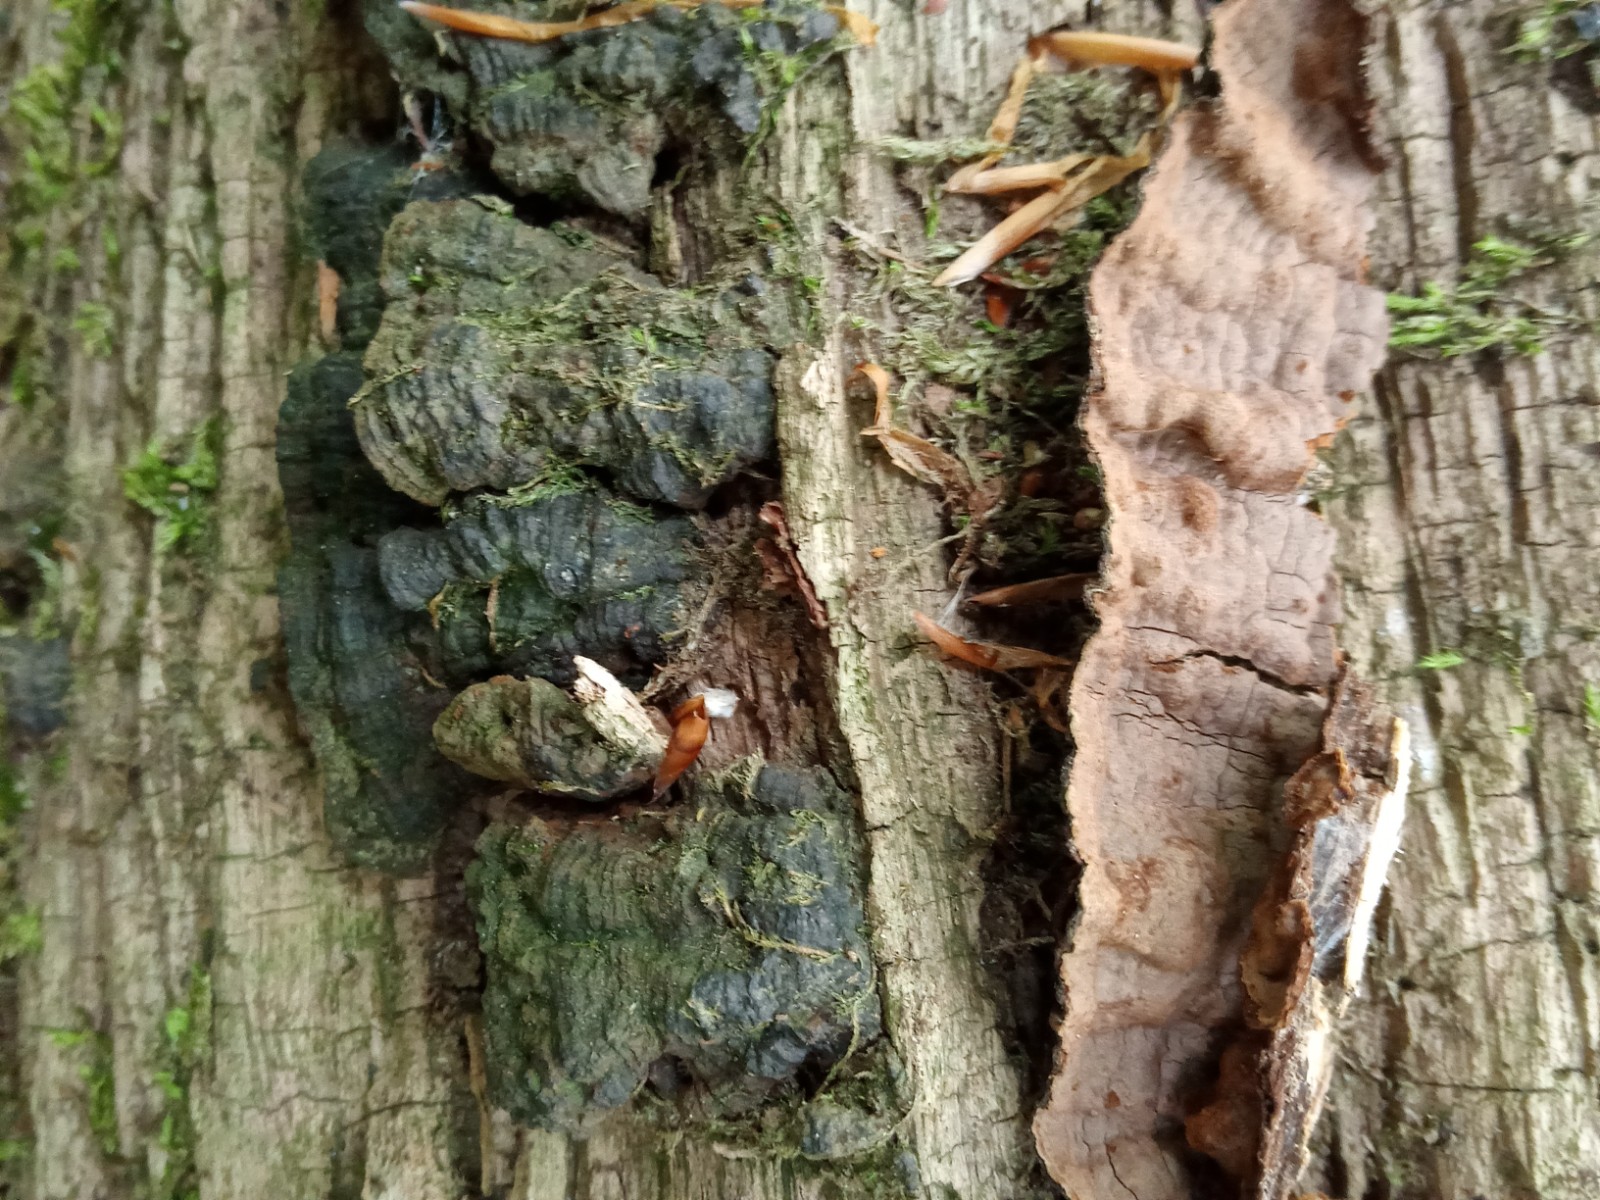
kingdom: Fungi
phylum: Basidiomycota
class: Agaricomycetes
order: Hymenochaetales
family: Hymenochaetaceae
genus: Hymenochaete
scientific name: Hymenochaete rubiginosa
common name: stiv ruslædersvamp
